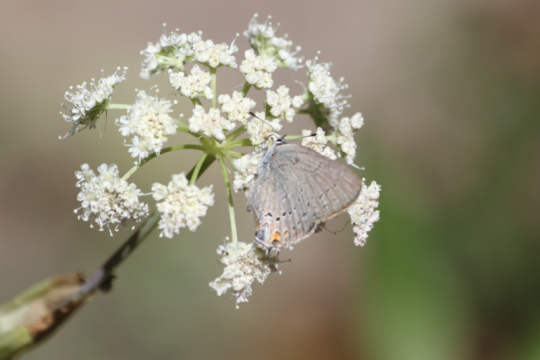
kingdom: Animalia
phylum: Arthropoda
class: Insecta
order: Lepidoptera
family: Lycaenidae
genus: Strymon
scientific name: Strymon sylvinus
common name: Sylvan Hairstreak
